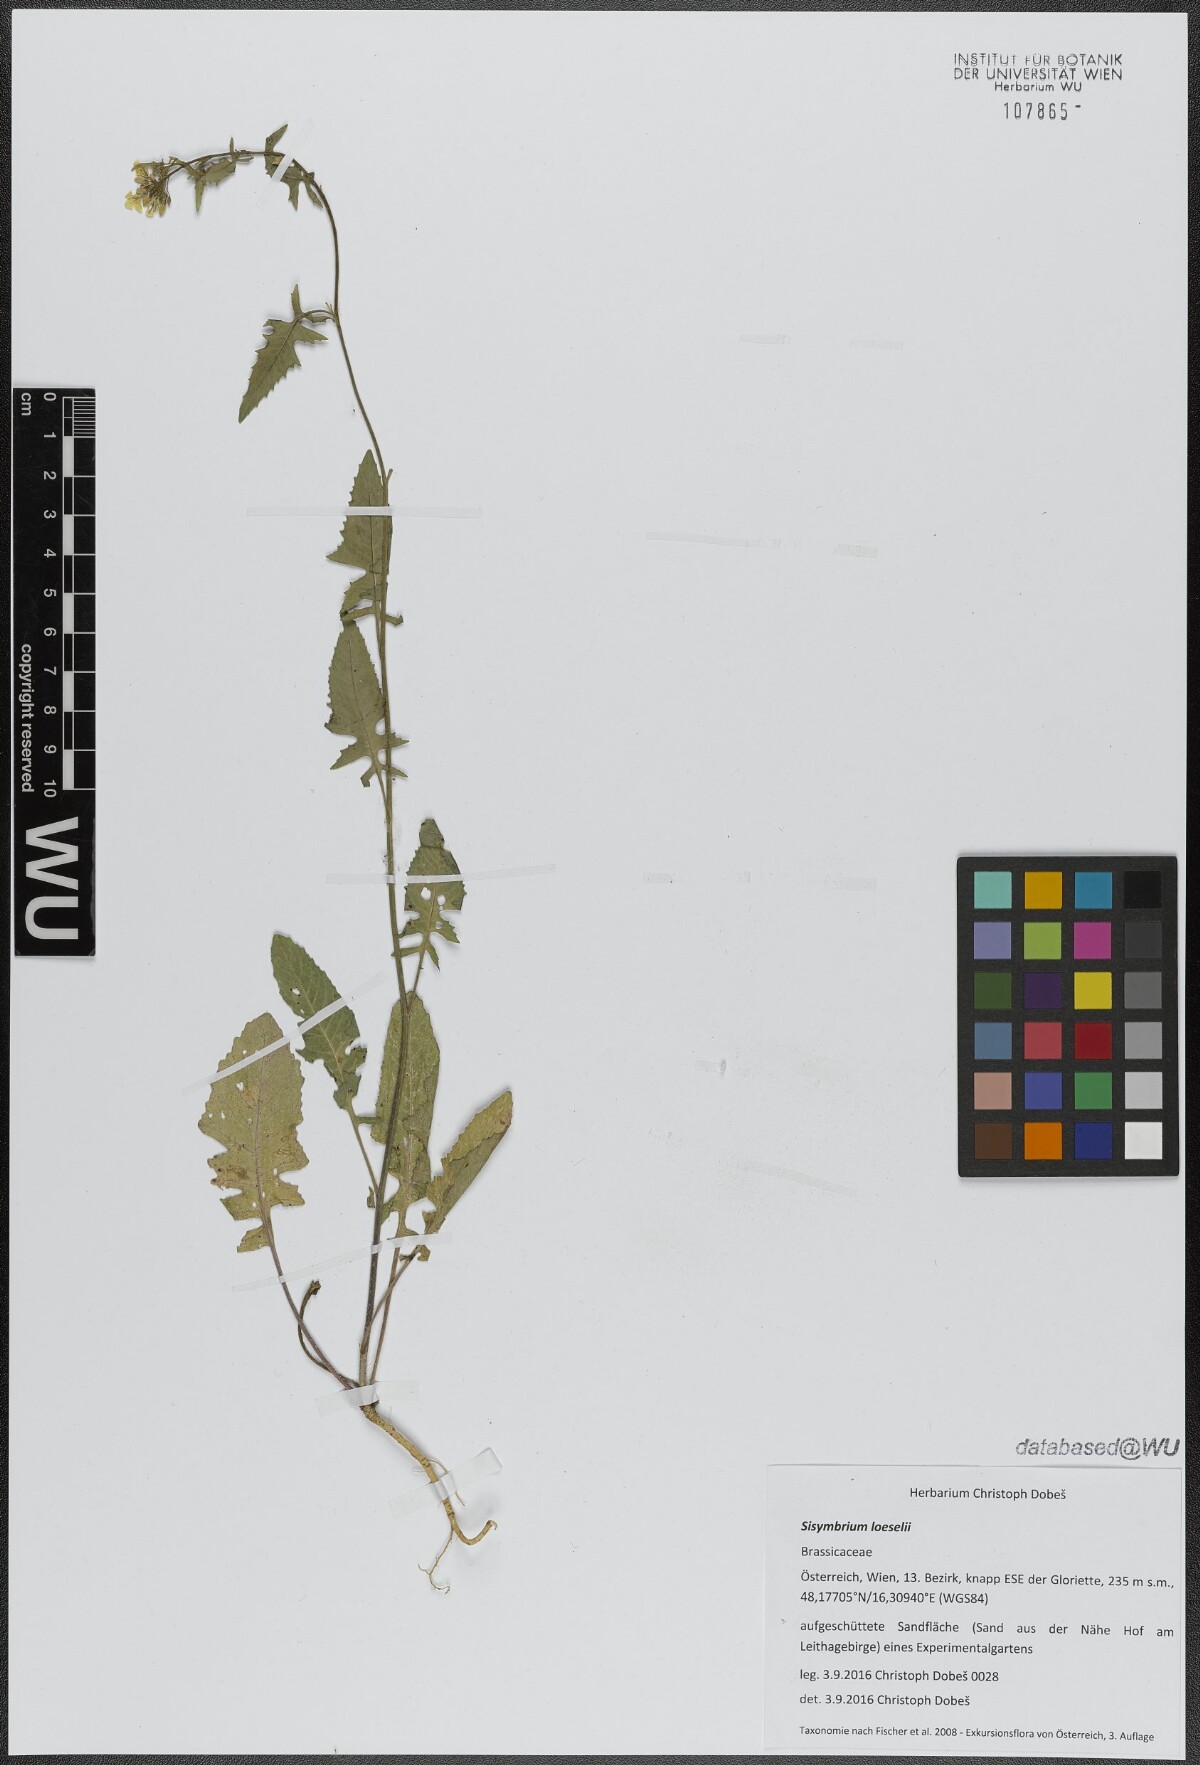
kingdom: Plantae
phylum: Tracheophyta
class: Magnoliopsida
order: Brassicales
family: Brassicaceae
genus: Sisymbrium
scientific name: Sisymbrium loeselii
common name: False london-rocket
